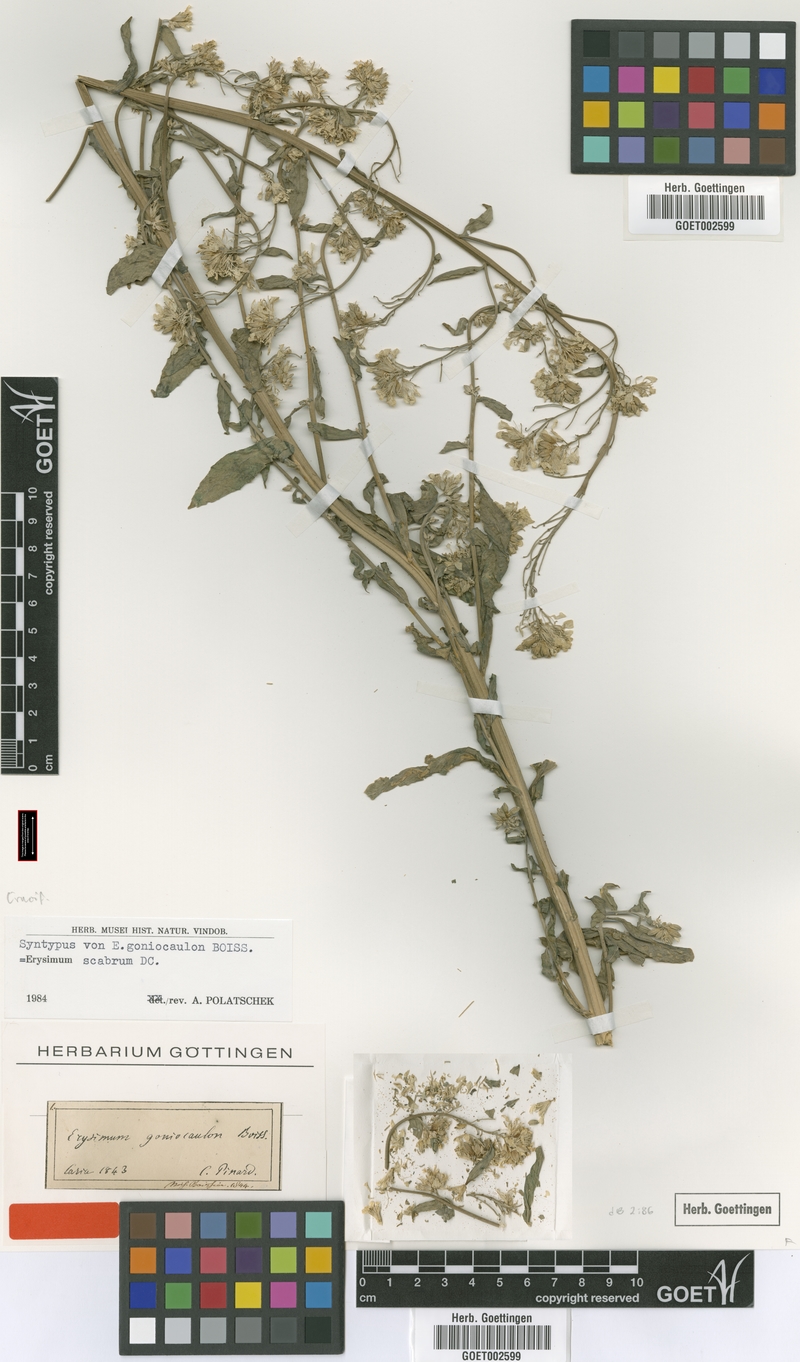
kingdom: Plantae
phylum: Tracheophyta
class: Magnoliopsida
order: Brassicales
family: Brassicaceae
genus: Erysimum
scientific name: Erysimum scabrum
